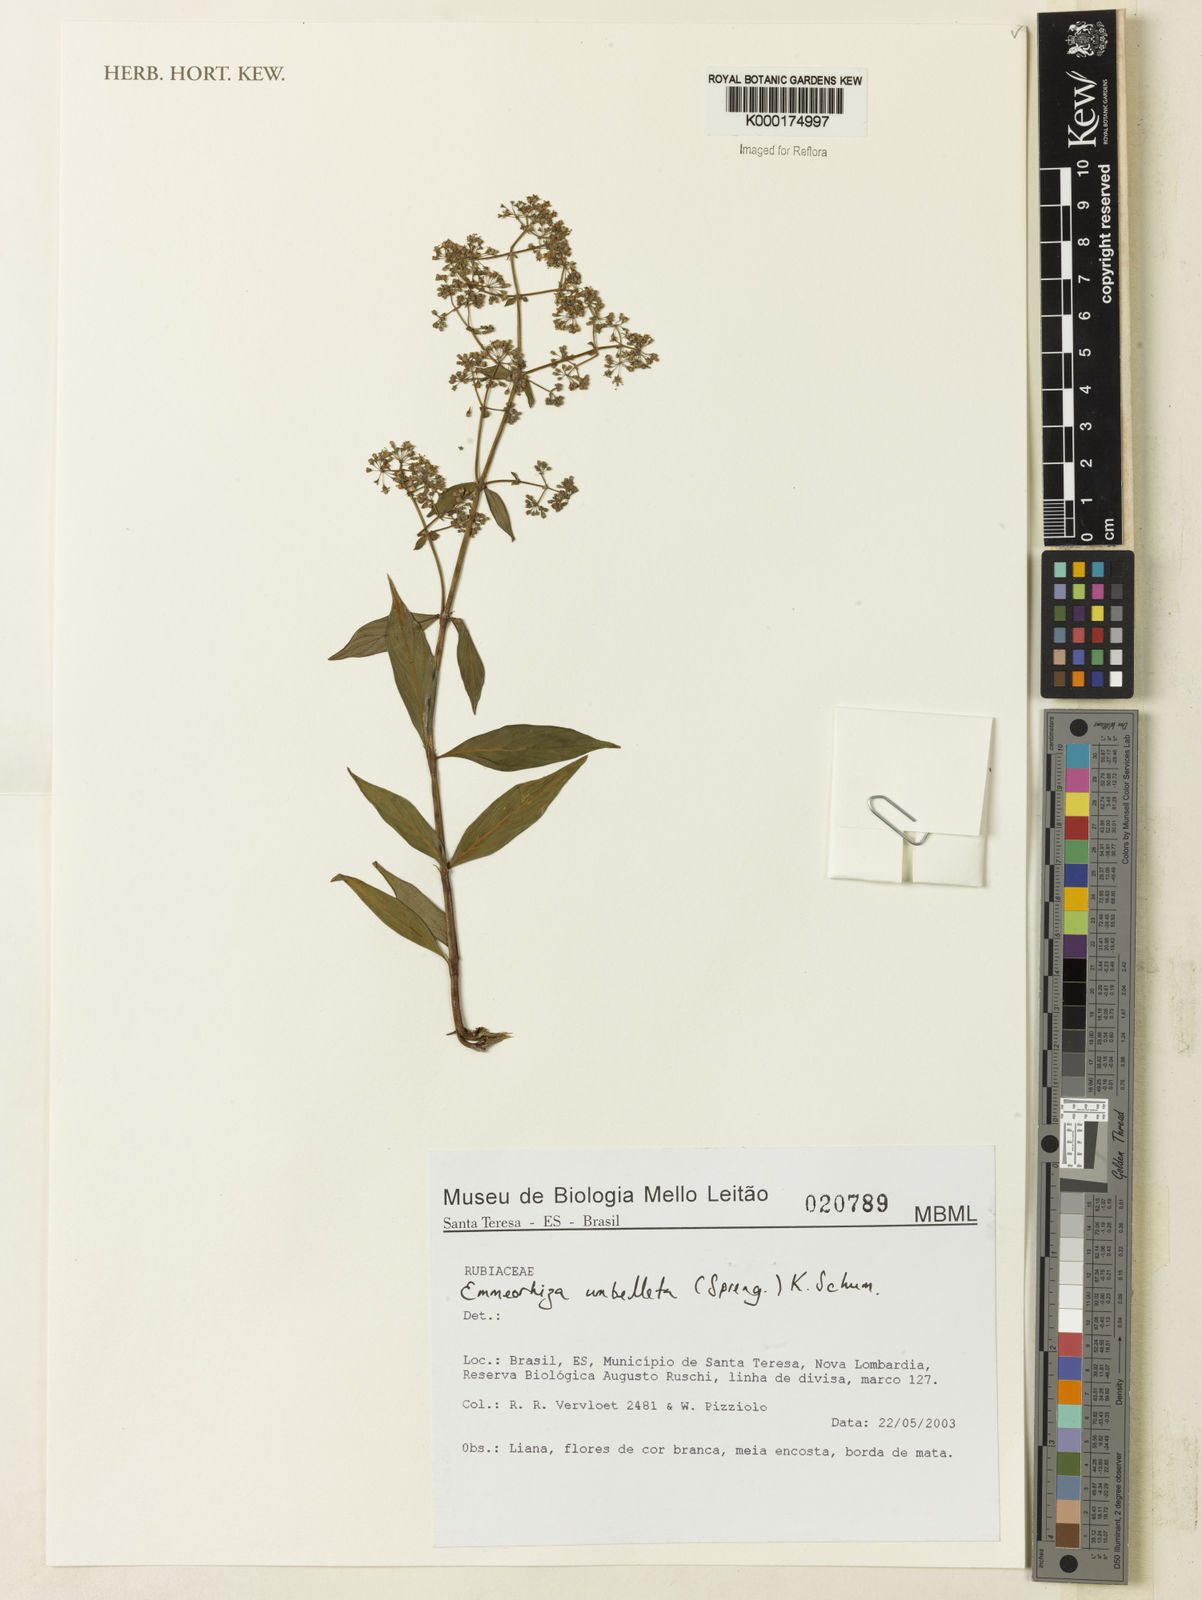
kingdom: Plantae
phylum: Tracheophyta
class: Magnoliopsida
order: Gentianales
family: Rubiaceae
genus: Emmeorhiza
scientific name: Emmeorhiza umbellata
